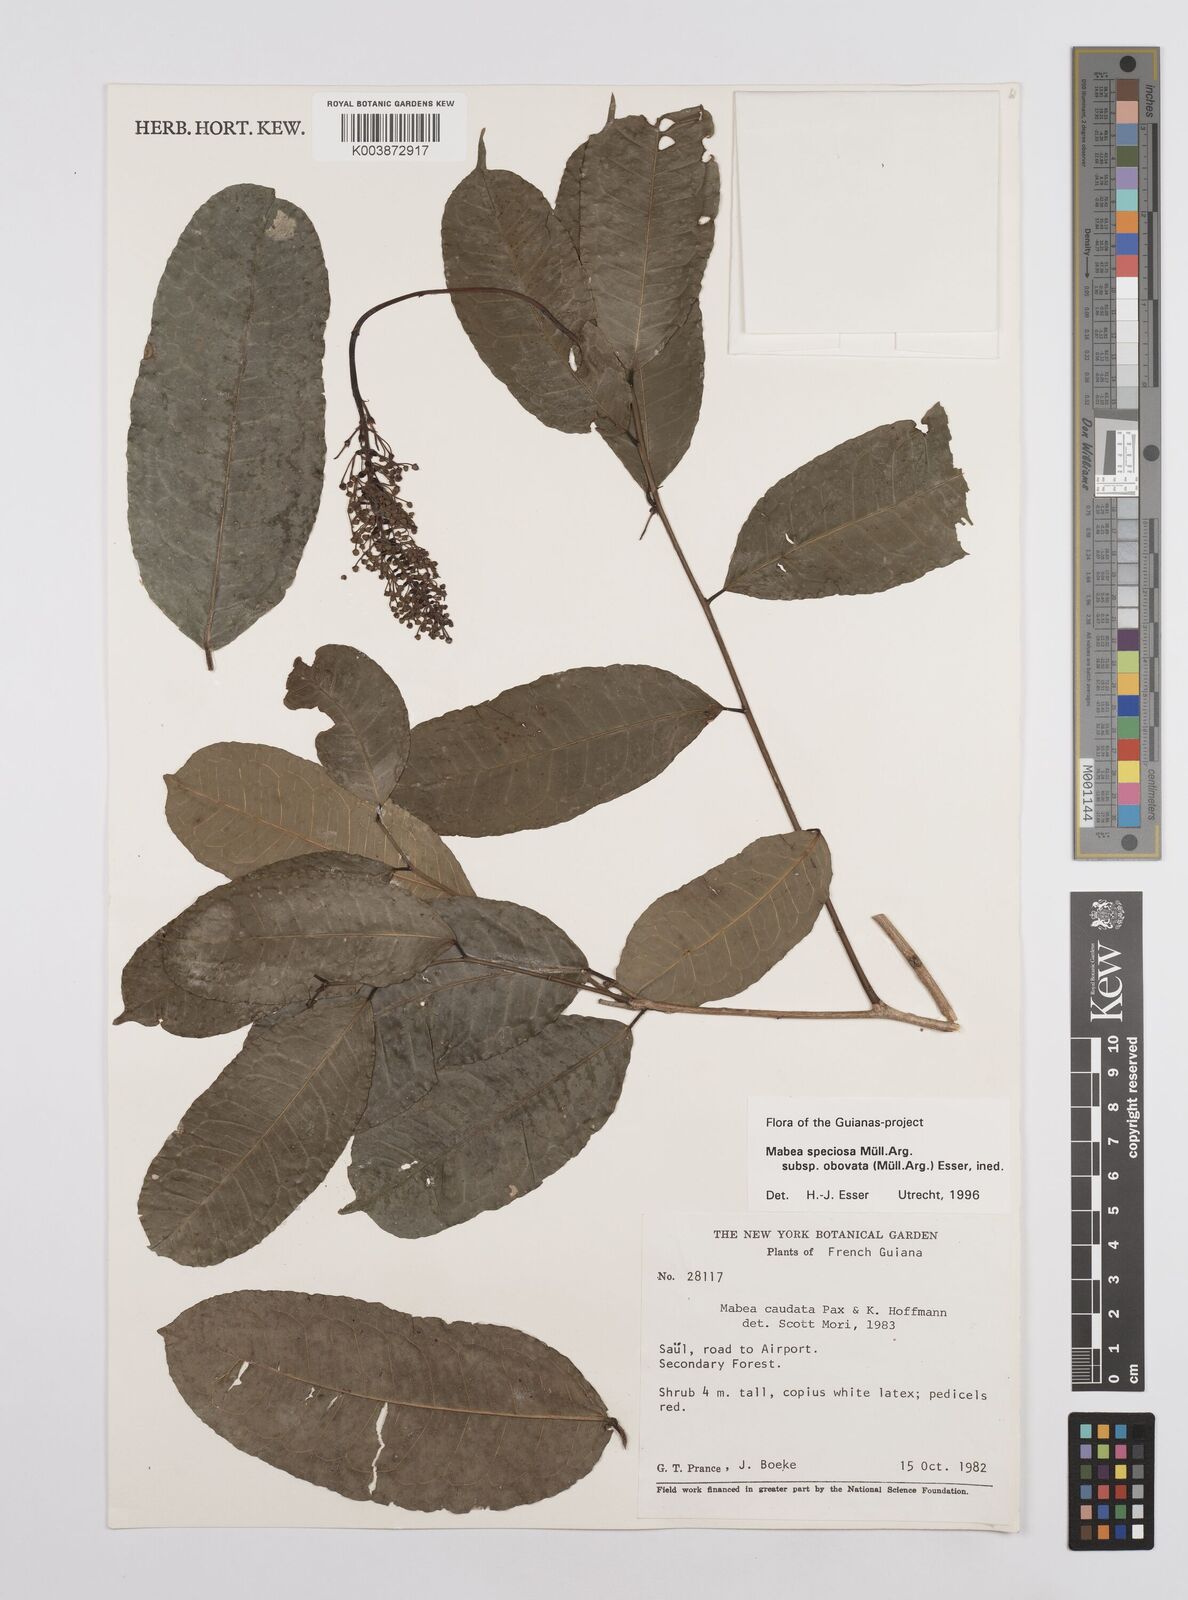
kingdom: Plantae
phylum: Tracheophyta
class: Magnoliopsida
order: Malpighiales
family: Euphorbiaceae
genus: Mabea
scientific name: Mabea speciosa
